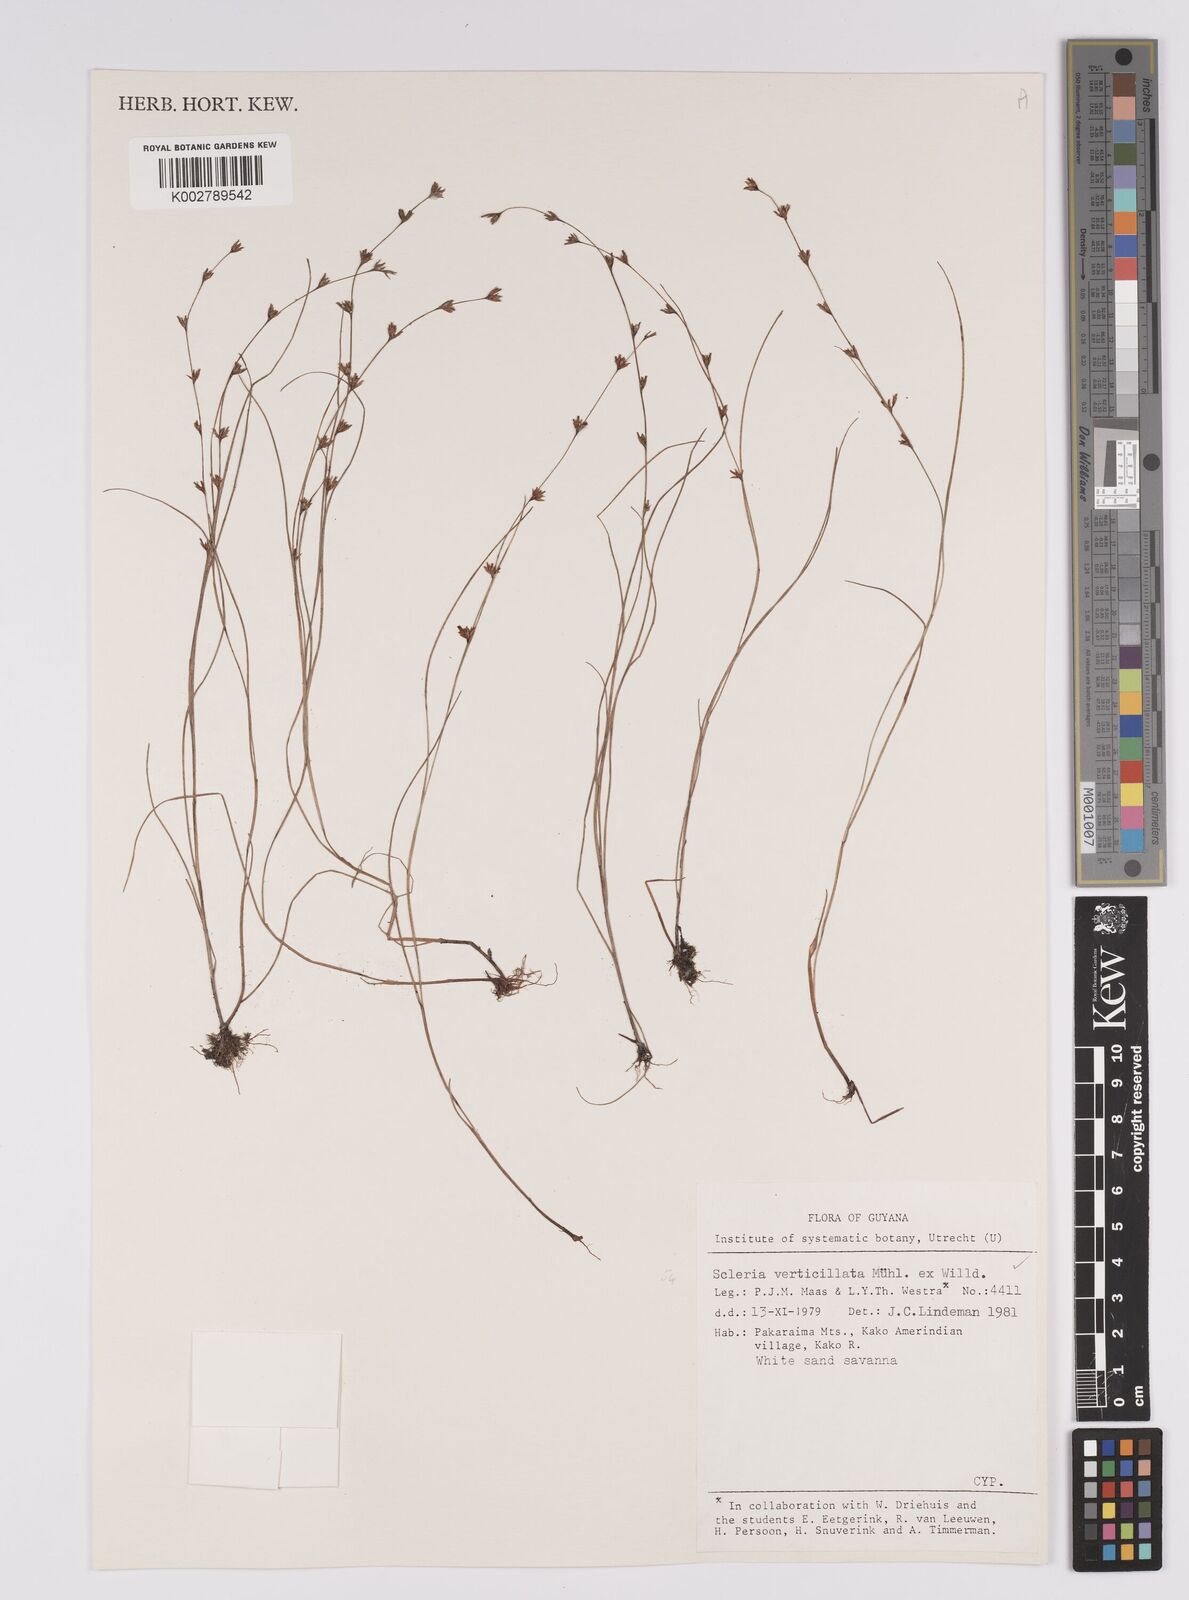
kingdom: Plantae
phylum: Tracheophyta
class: Liliopsida
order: Poales
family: Cyperaceae
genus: Scleria
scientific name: Scleria verticillata
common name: Low nutrush
